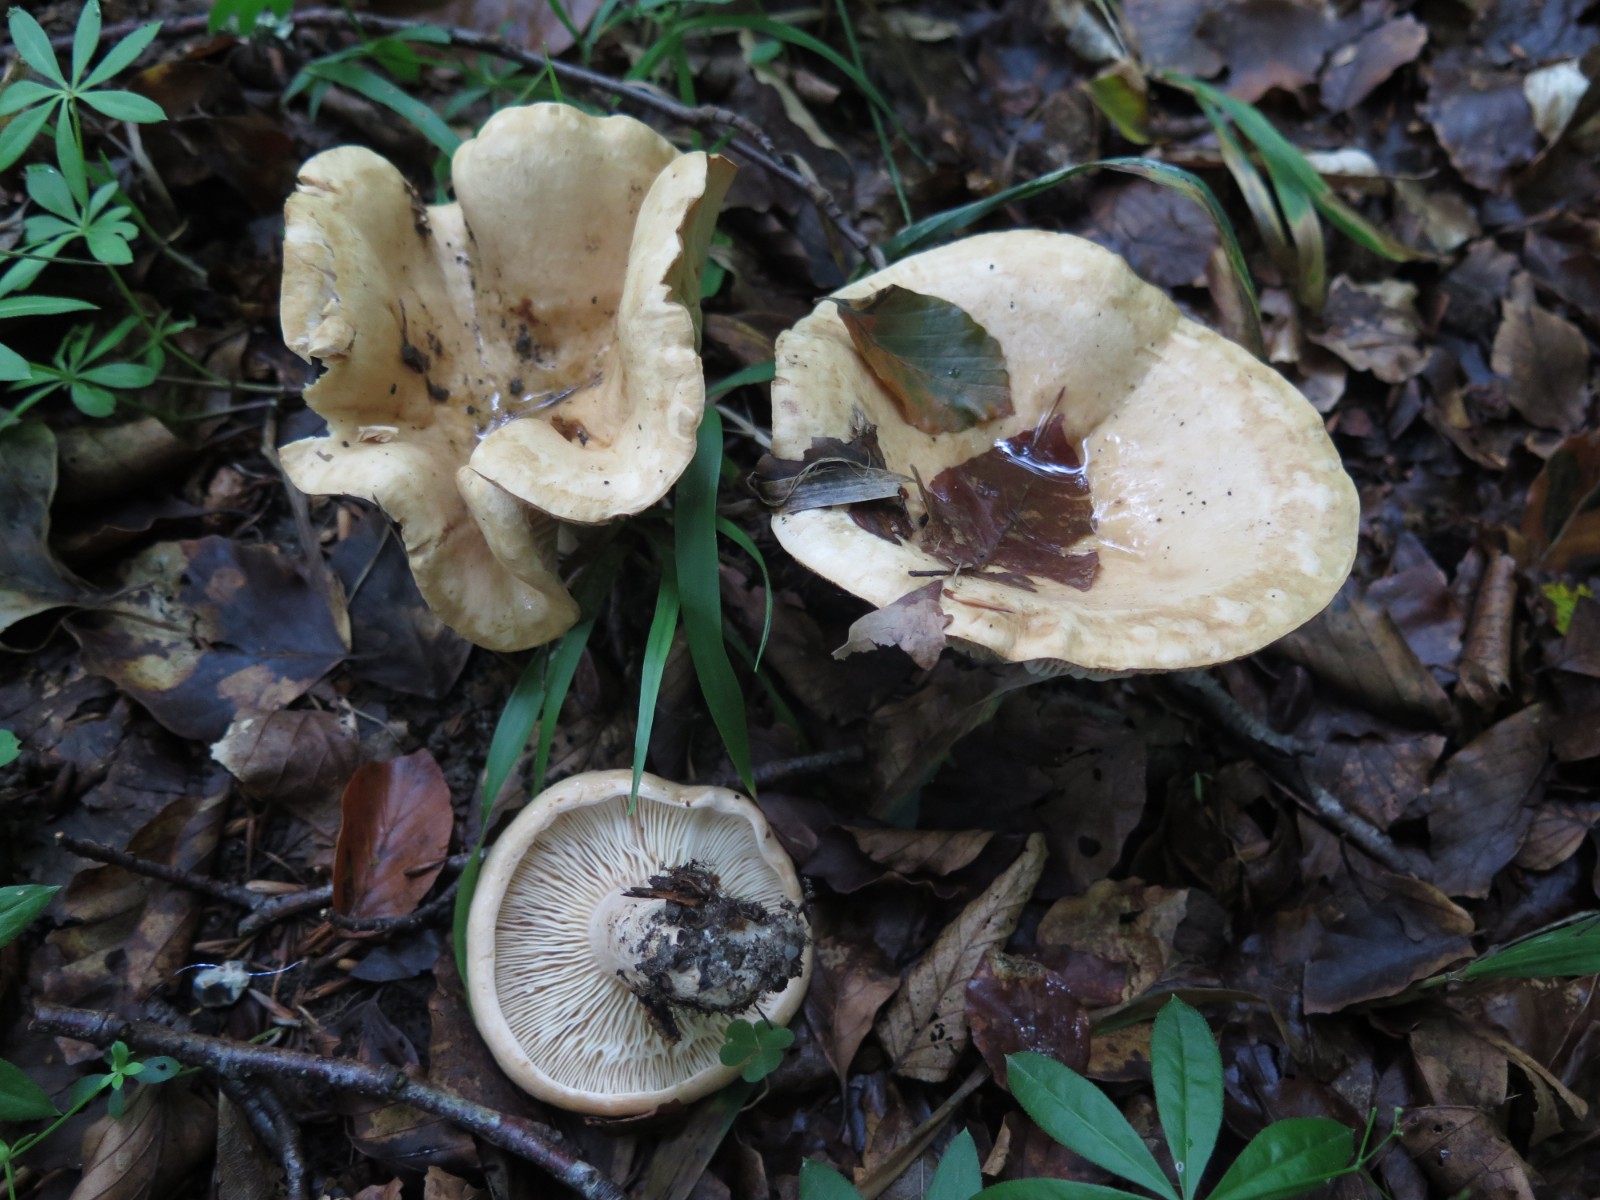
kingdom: Fungi
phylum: Basidiomycota
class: Agaricomycetes
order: Russulales
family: Russulaceae
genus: Lactarius
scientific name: Lactarius pallidus
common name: bleg mælkehat
